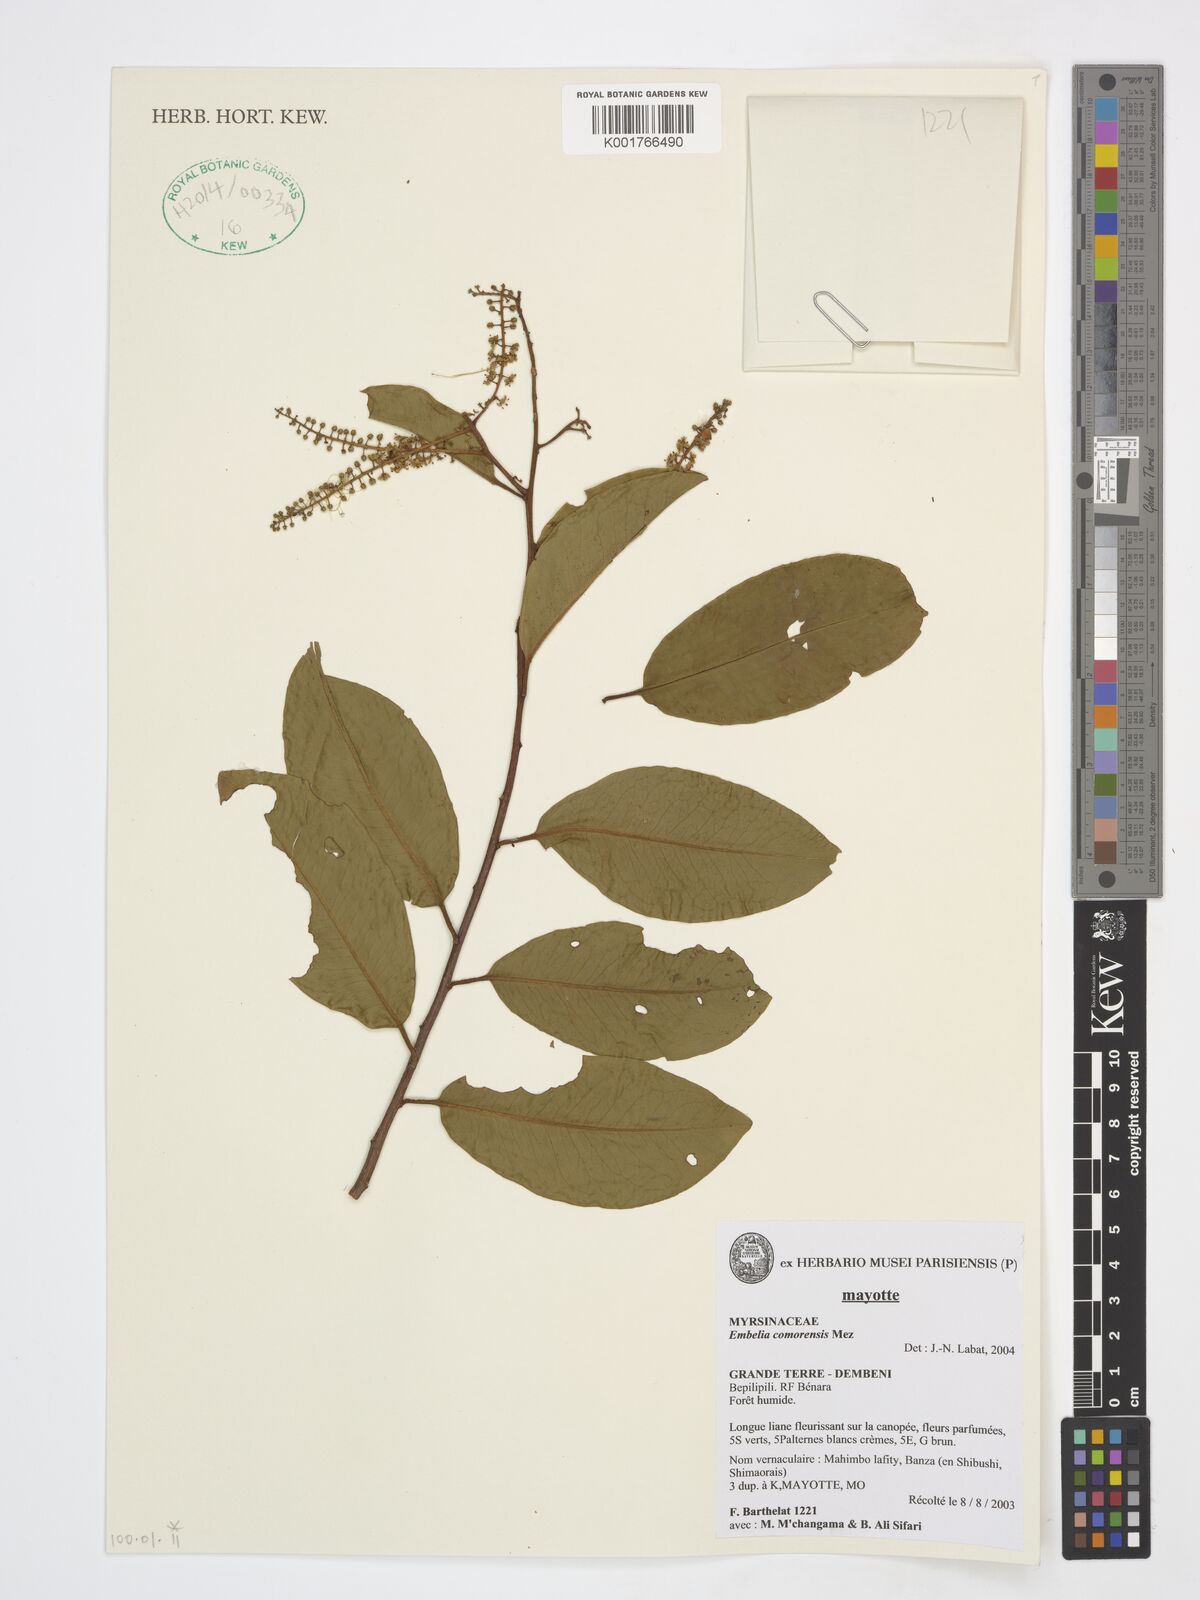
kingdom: Plantae
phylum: Tracheophyta
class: Magnoliopsida
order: Ericales
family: Primulaceae
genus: Embelia
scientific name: Embelia comorensis
